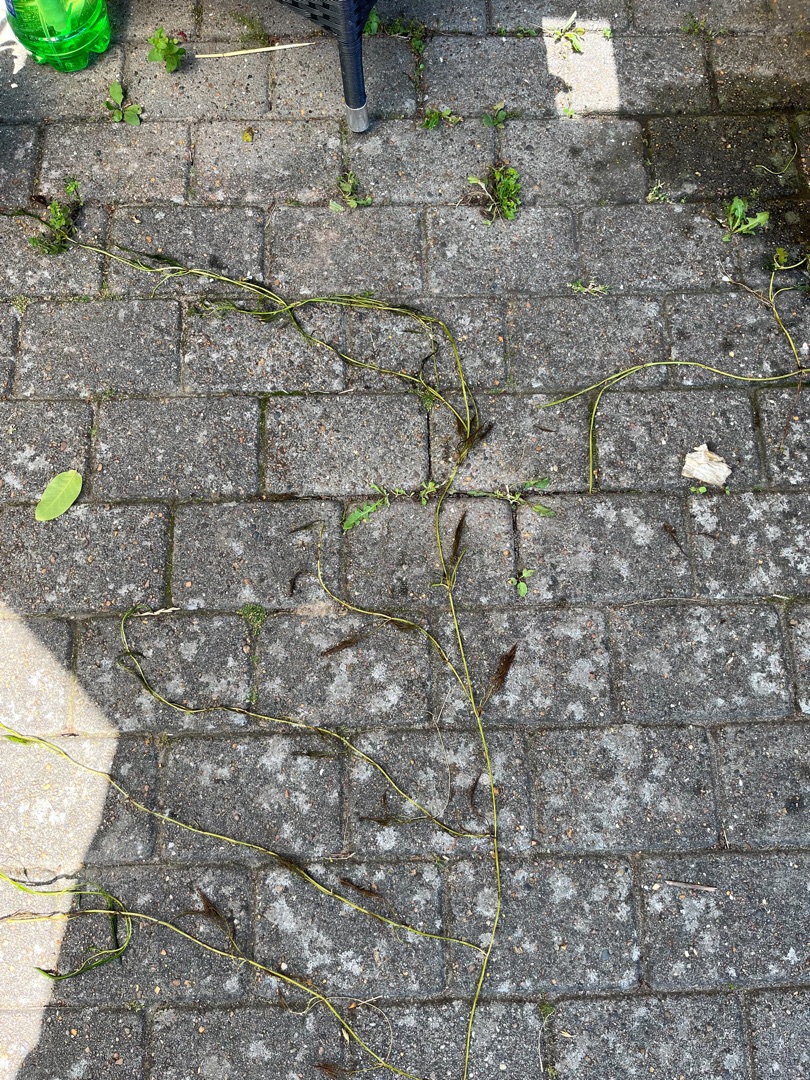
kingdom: Plantae
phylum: Tracheophyta
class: Magnoliopsida
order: Ranunculales
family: Ranunculaceae
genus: Ranunculus
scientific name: Ranunculus peltatus
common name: Storblomstret vandranunkel
